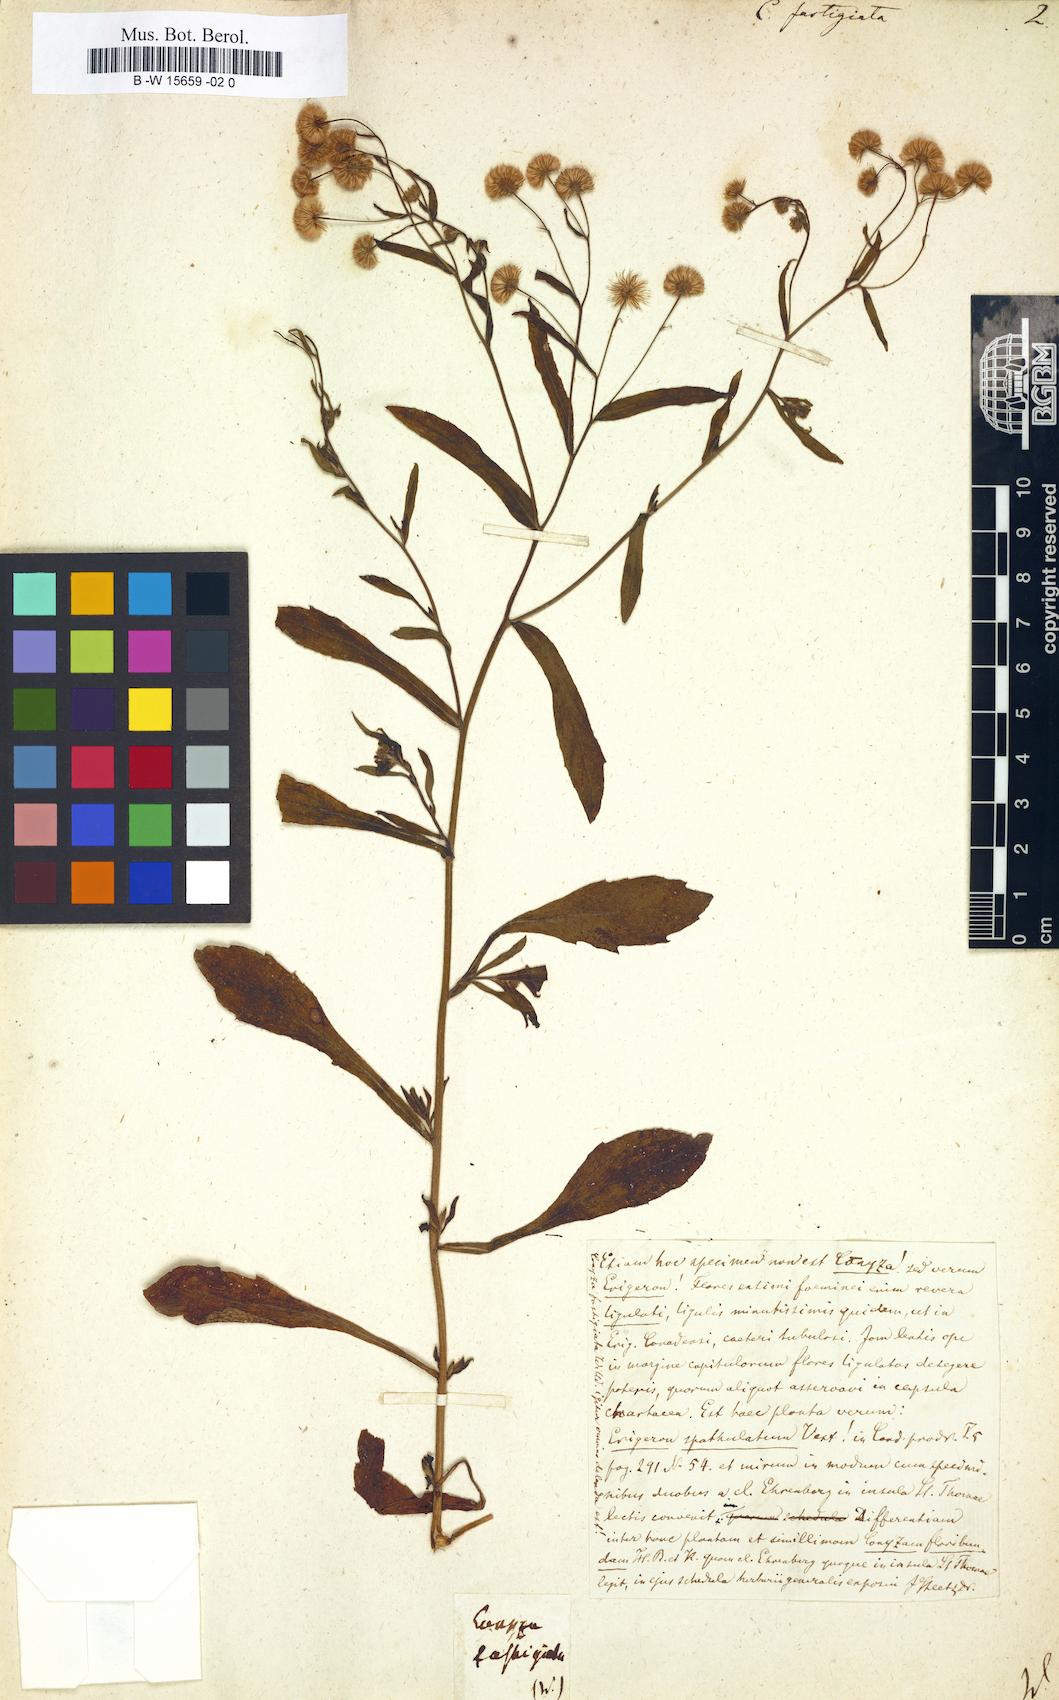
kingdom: Plantae
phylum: Tracheophyta
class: Magnoliopsida
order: Asterales
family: Asteraceae
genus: Erigeron
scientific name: Erigeron Conyza fastigiata
